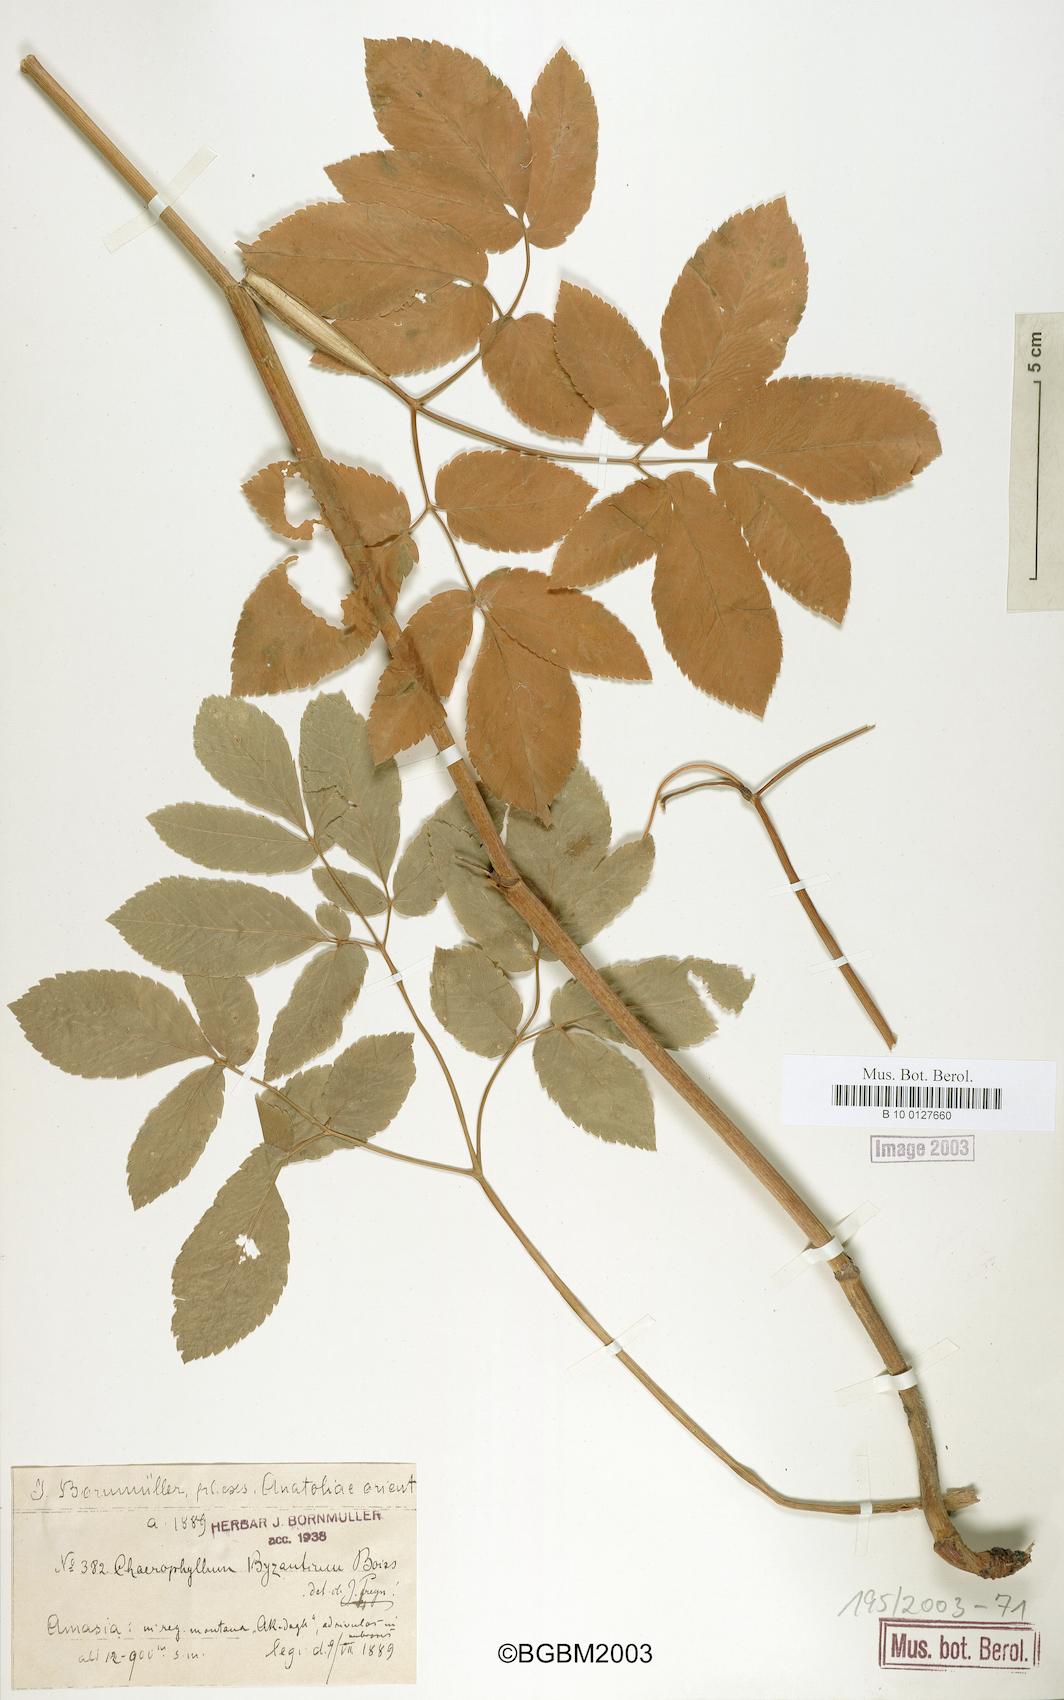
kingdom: Plantae
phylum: Tracheophyta
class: Magnoliopsida
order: Apiales
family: Apiaceae
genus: Chaerophyllum
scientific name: Chaerophyllum byzantinum
